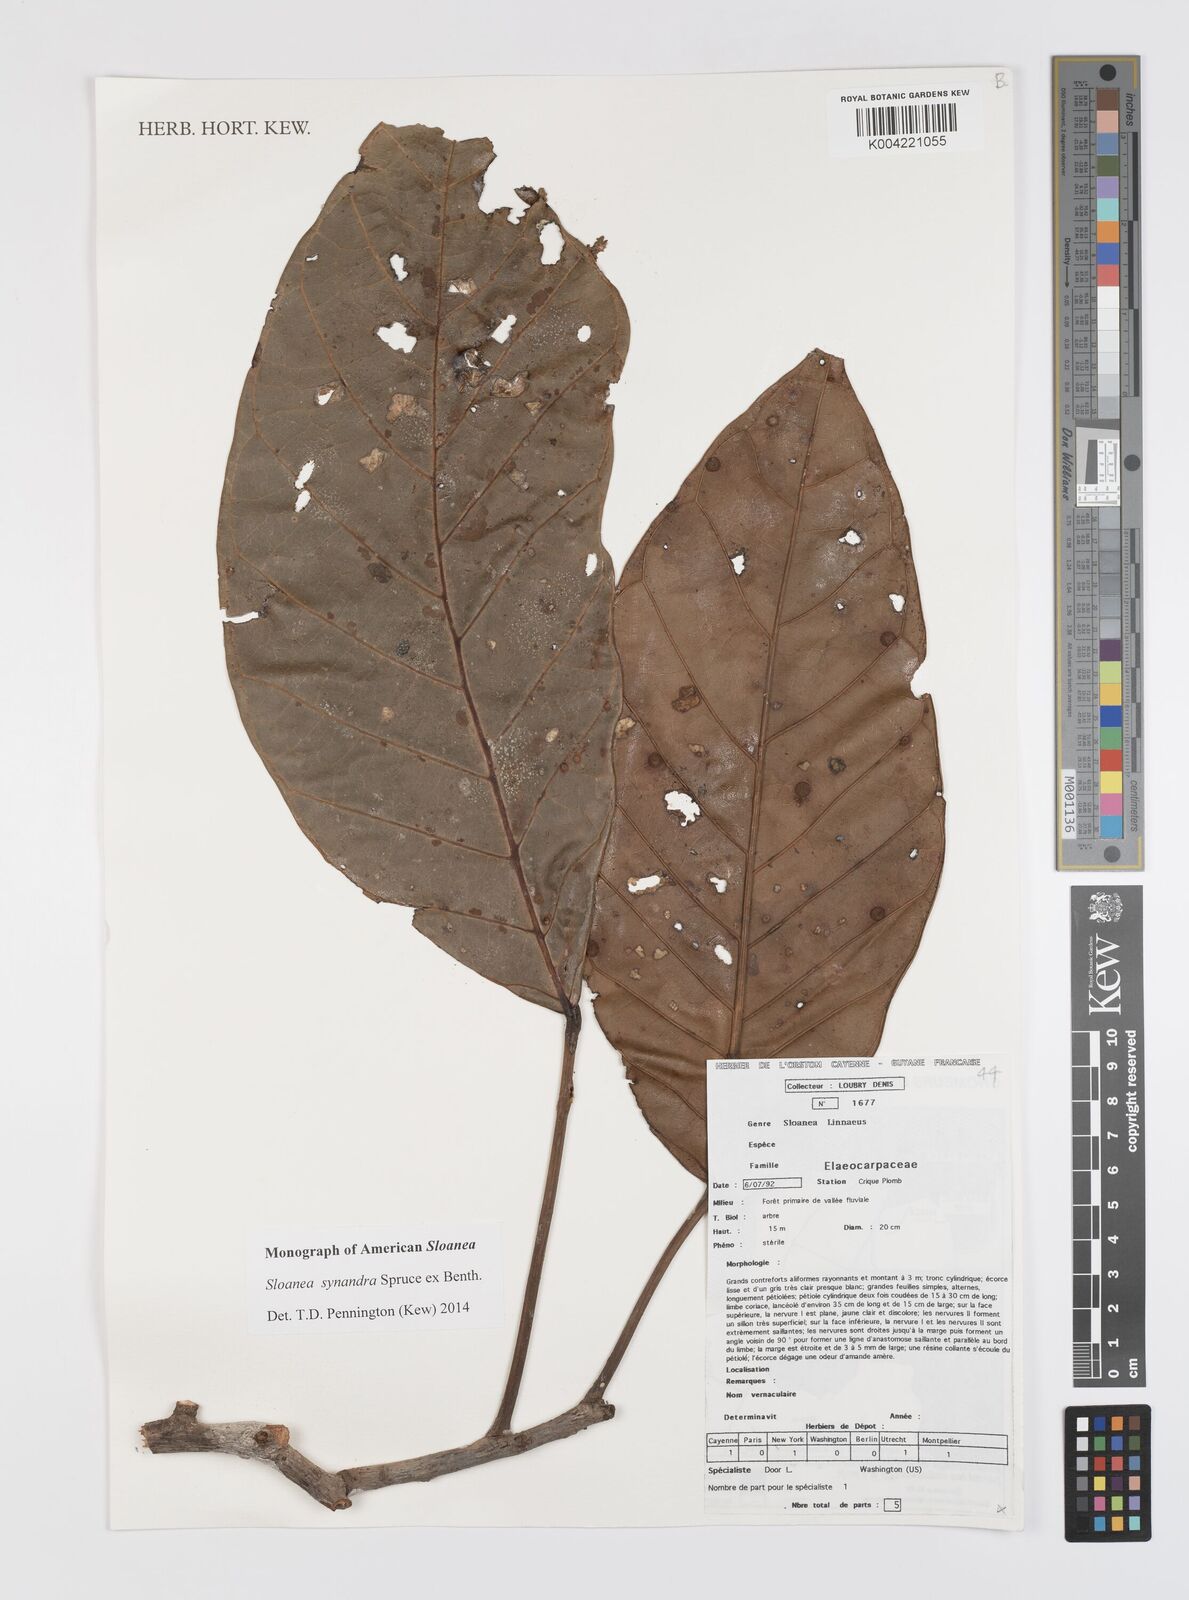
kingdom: Plantae
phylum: Tracheophyta
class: Magnoliopsida
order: Oxalidales
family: Elaeocarpaceae
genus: Sloanea
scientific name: Sloanea synandra
